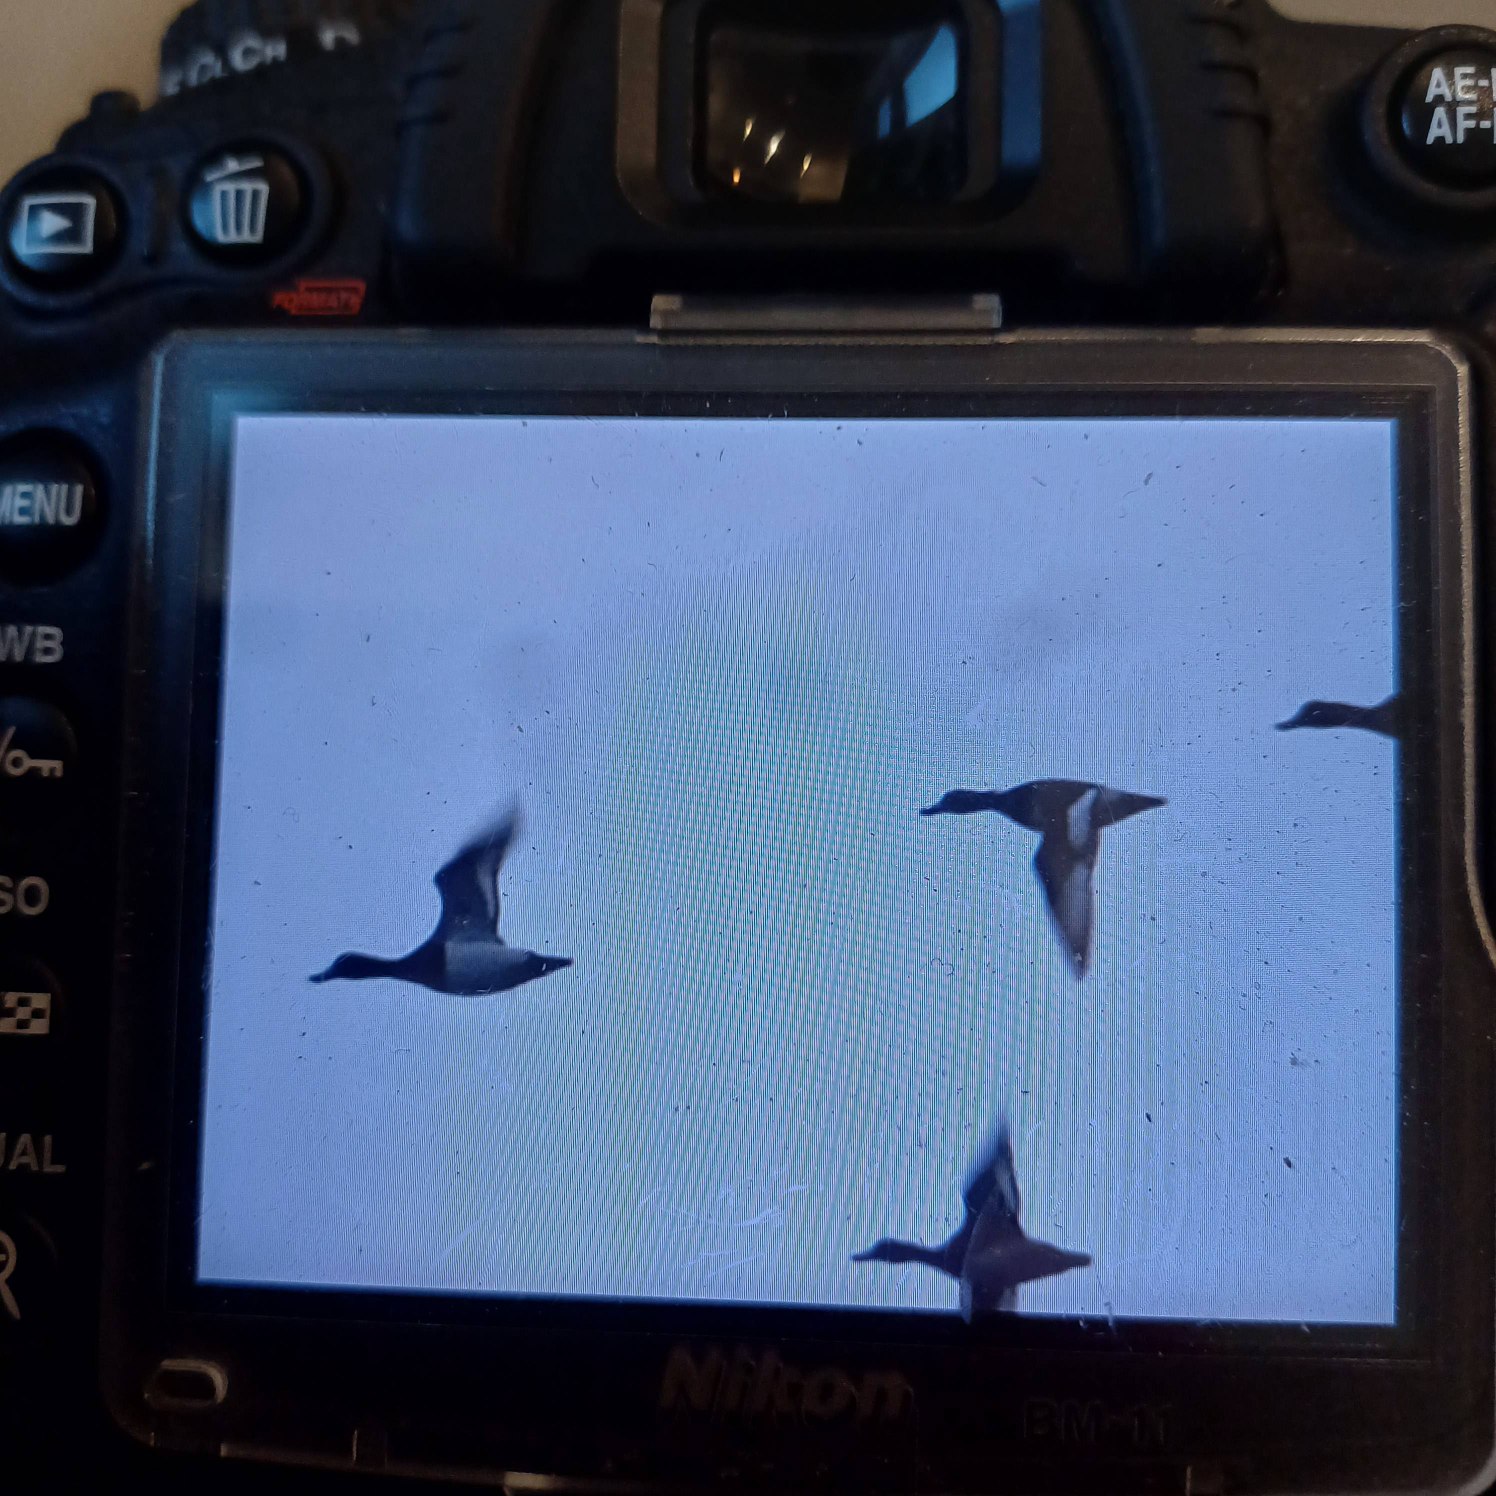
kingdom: Animalia
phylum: Chordata
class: Aves
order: Anseriformes
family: Anatidae
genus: Aythya
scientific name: Aythya fuligula
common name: Troldand
